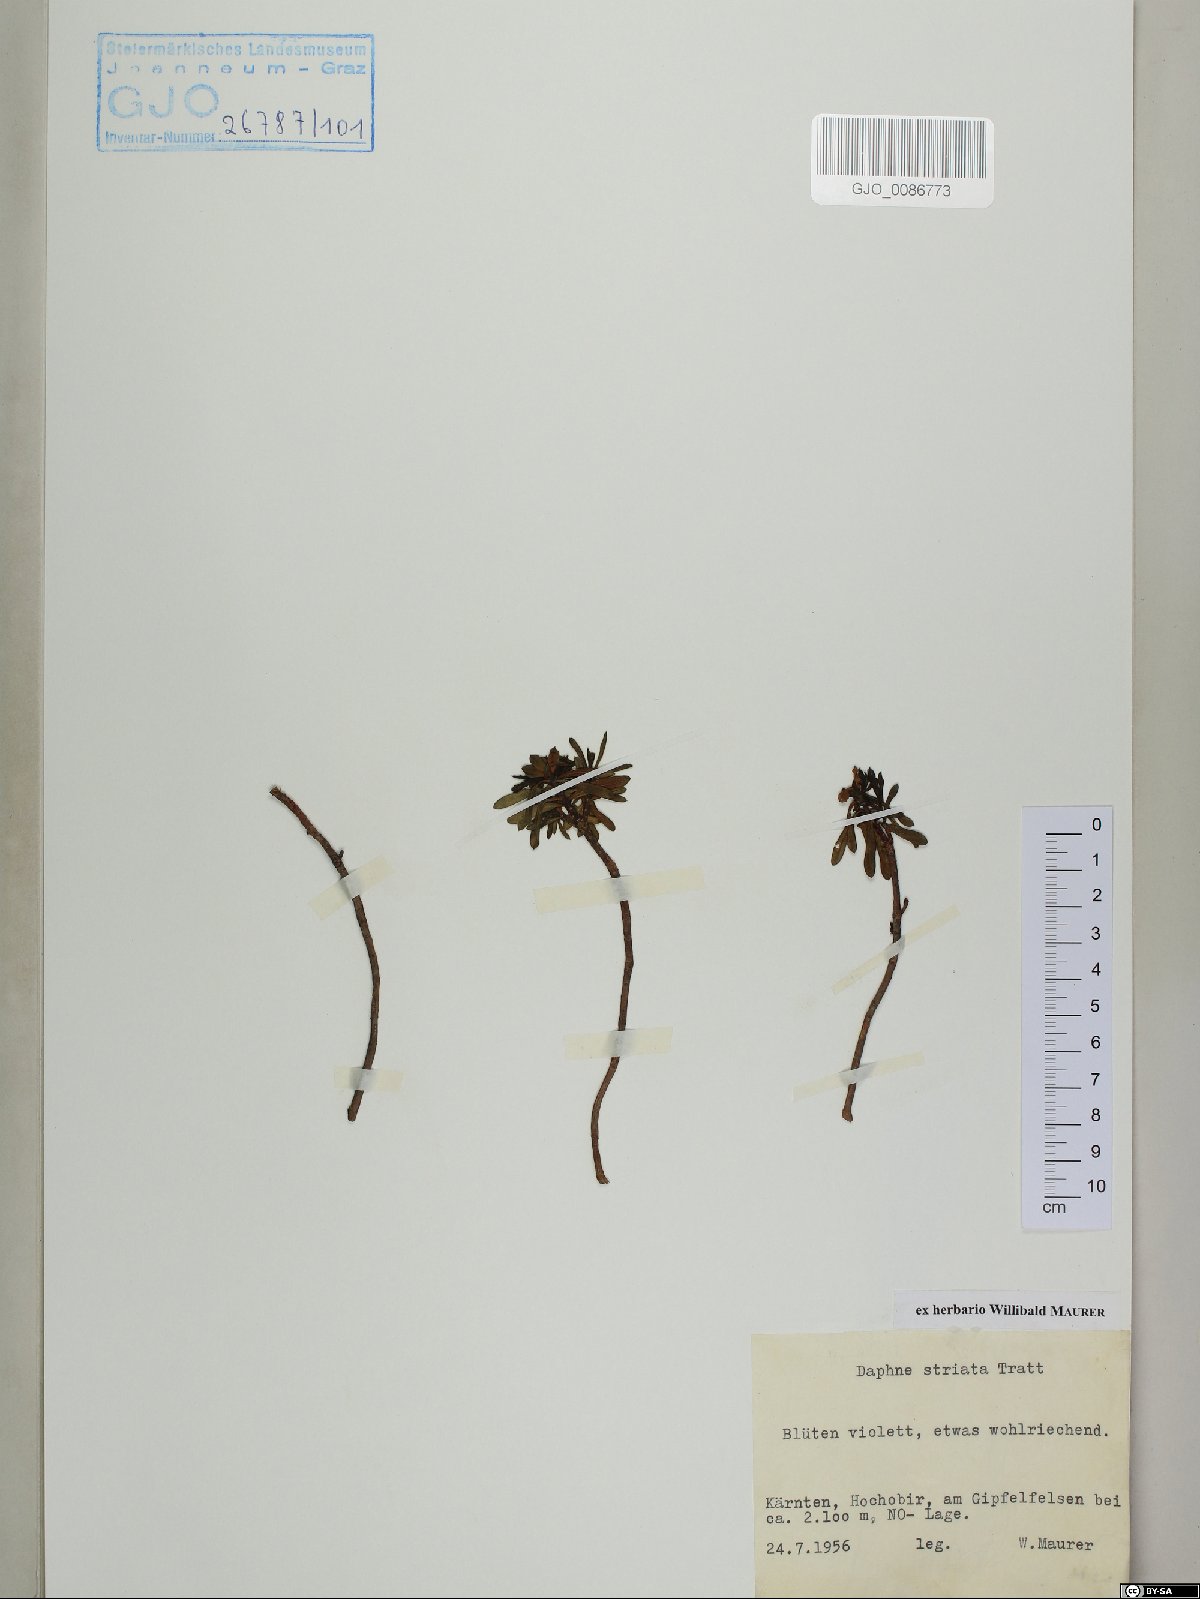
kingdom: Plantae
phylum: Tracheophyta
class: Magnoliopsida
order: Malvales
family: Thymelaeaceae
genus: Daphne
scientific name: Daphne striata
